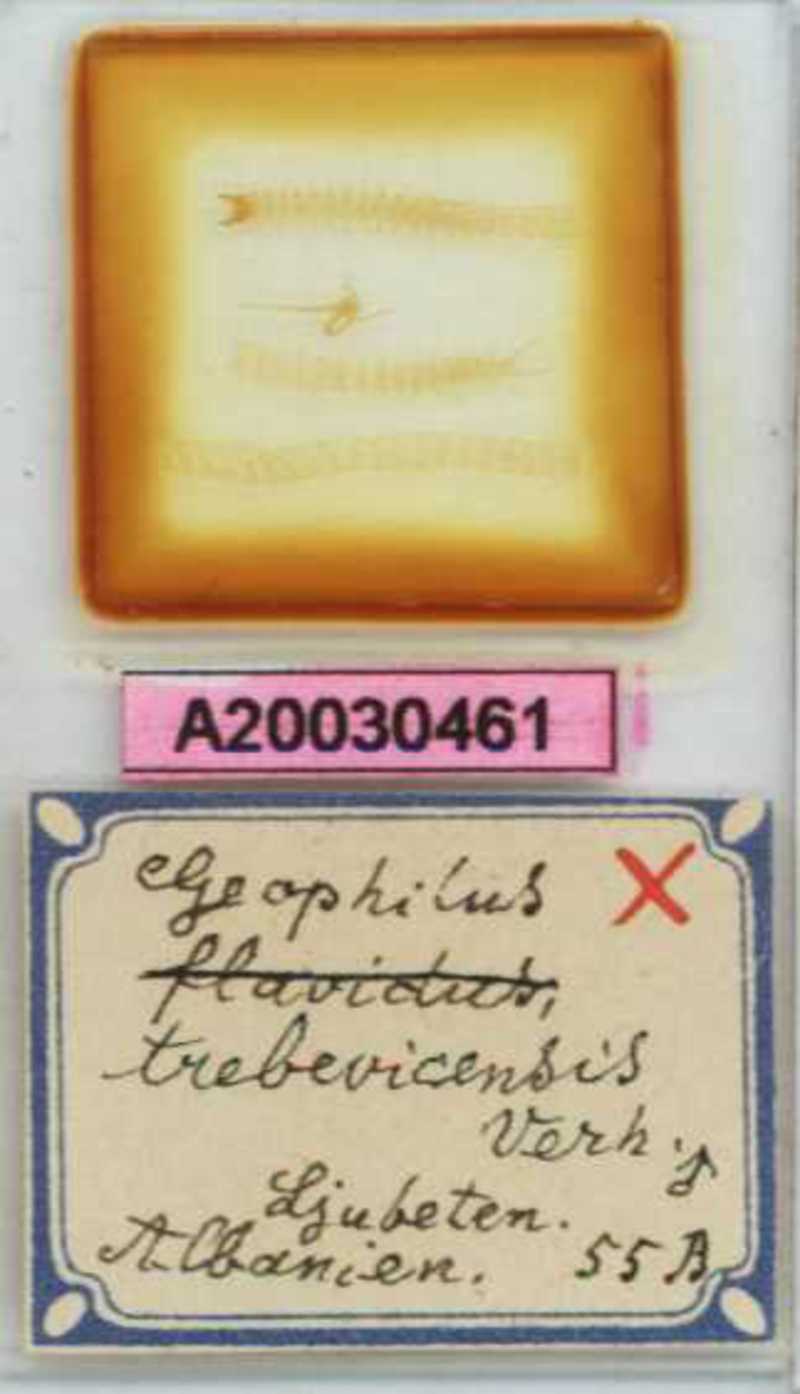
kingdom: Animalia
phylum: Arthropoda
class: Chilopoda
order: Geophilomorpha
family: Geophilidae
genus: Clinopodes
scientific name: Clinopodes trebevicensis
